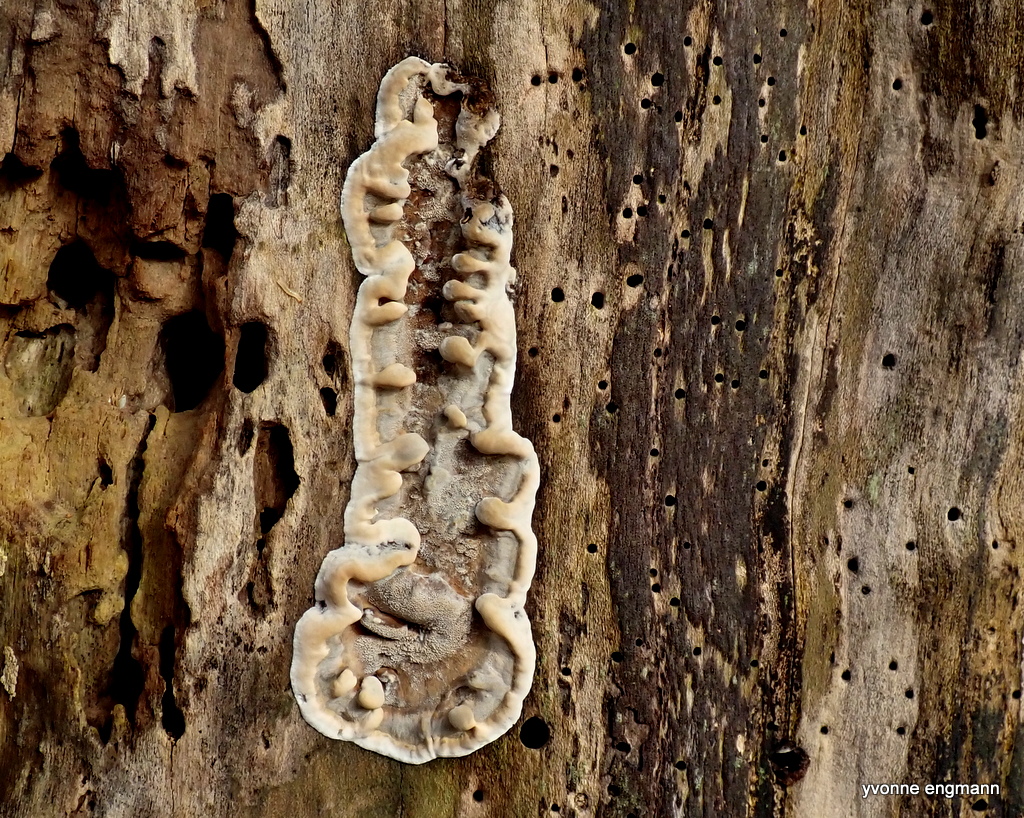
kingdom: Fungi
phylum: Basidiomycota
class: Agaricomycetes
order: Polyporales
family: Phanerochaetaceae
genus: Bjerkandera
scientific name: Bjerkandera adusta
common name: sveden sodporesvamp
